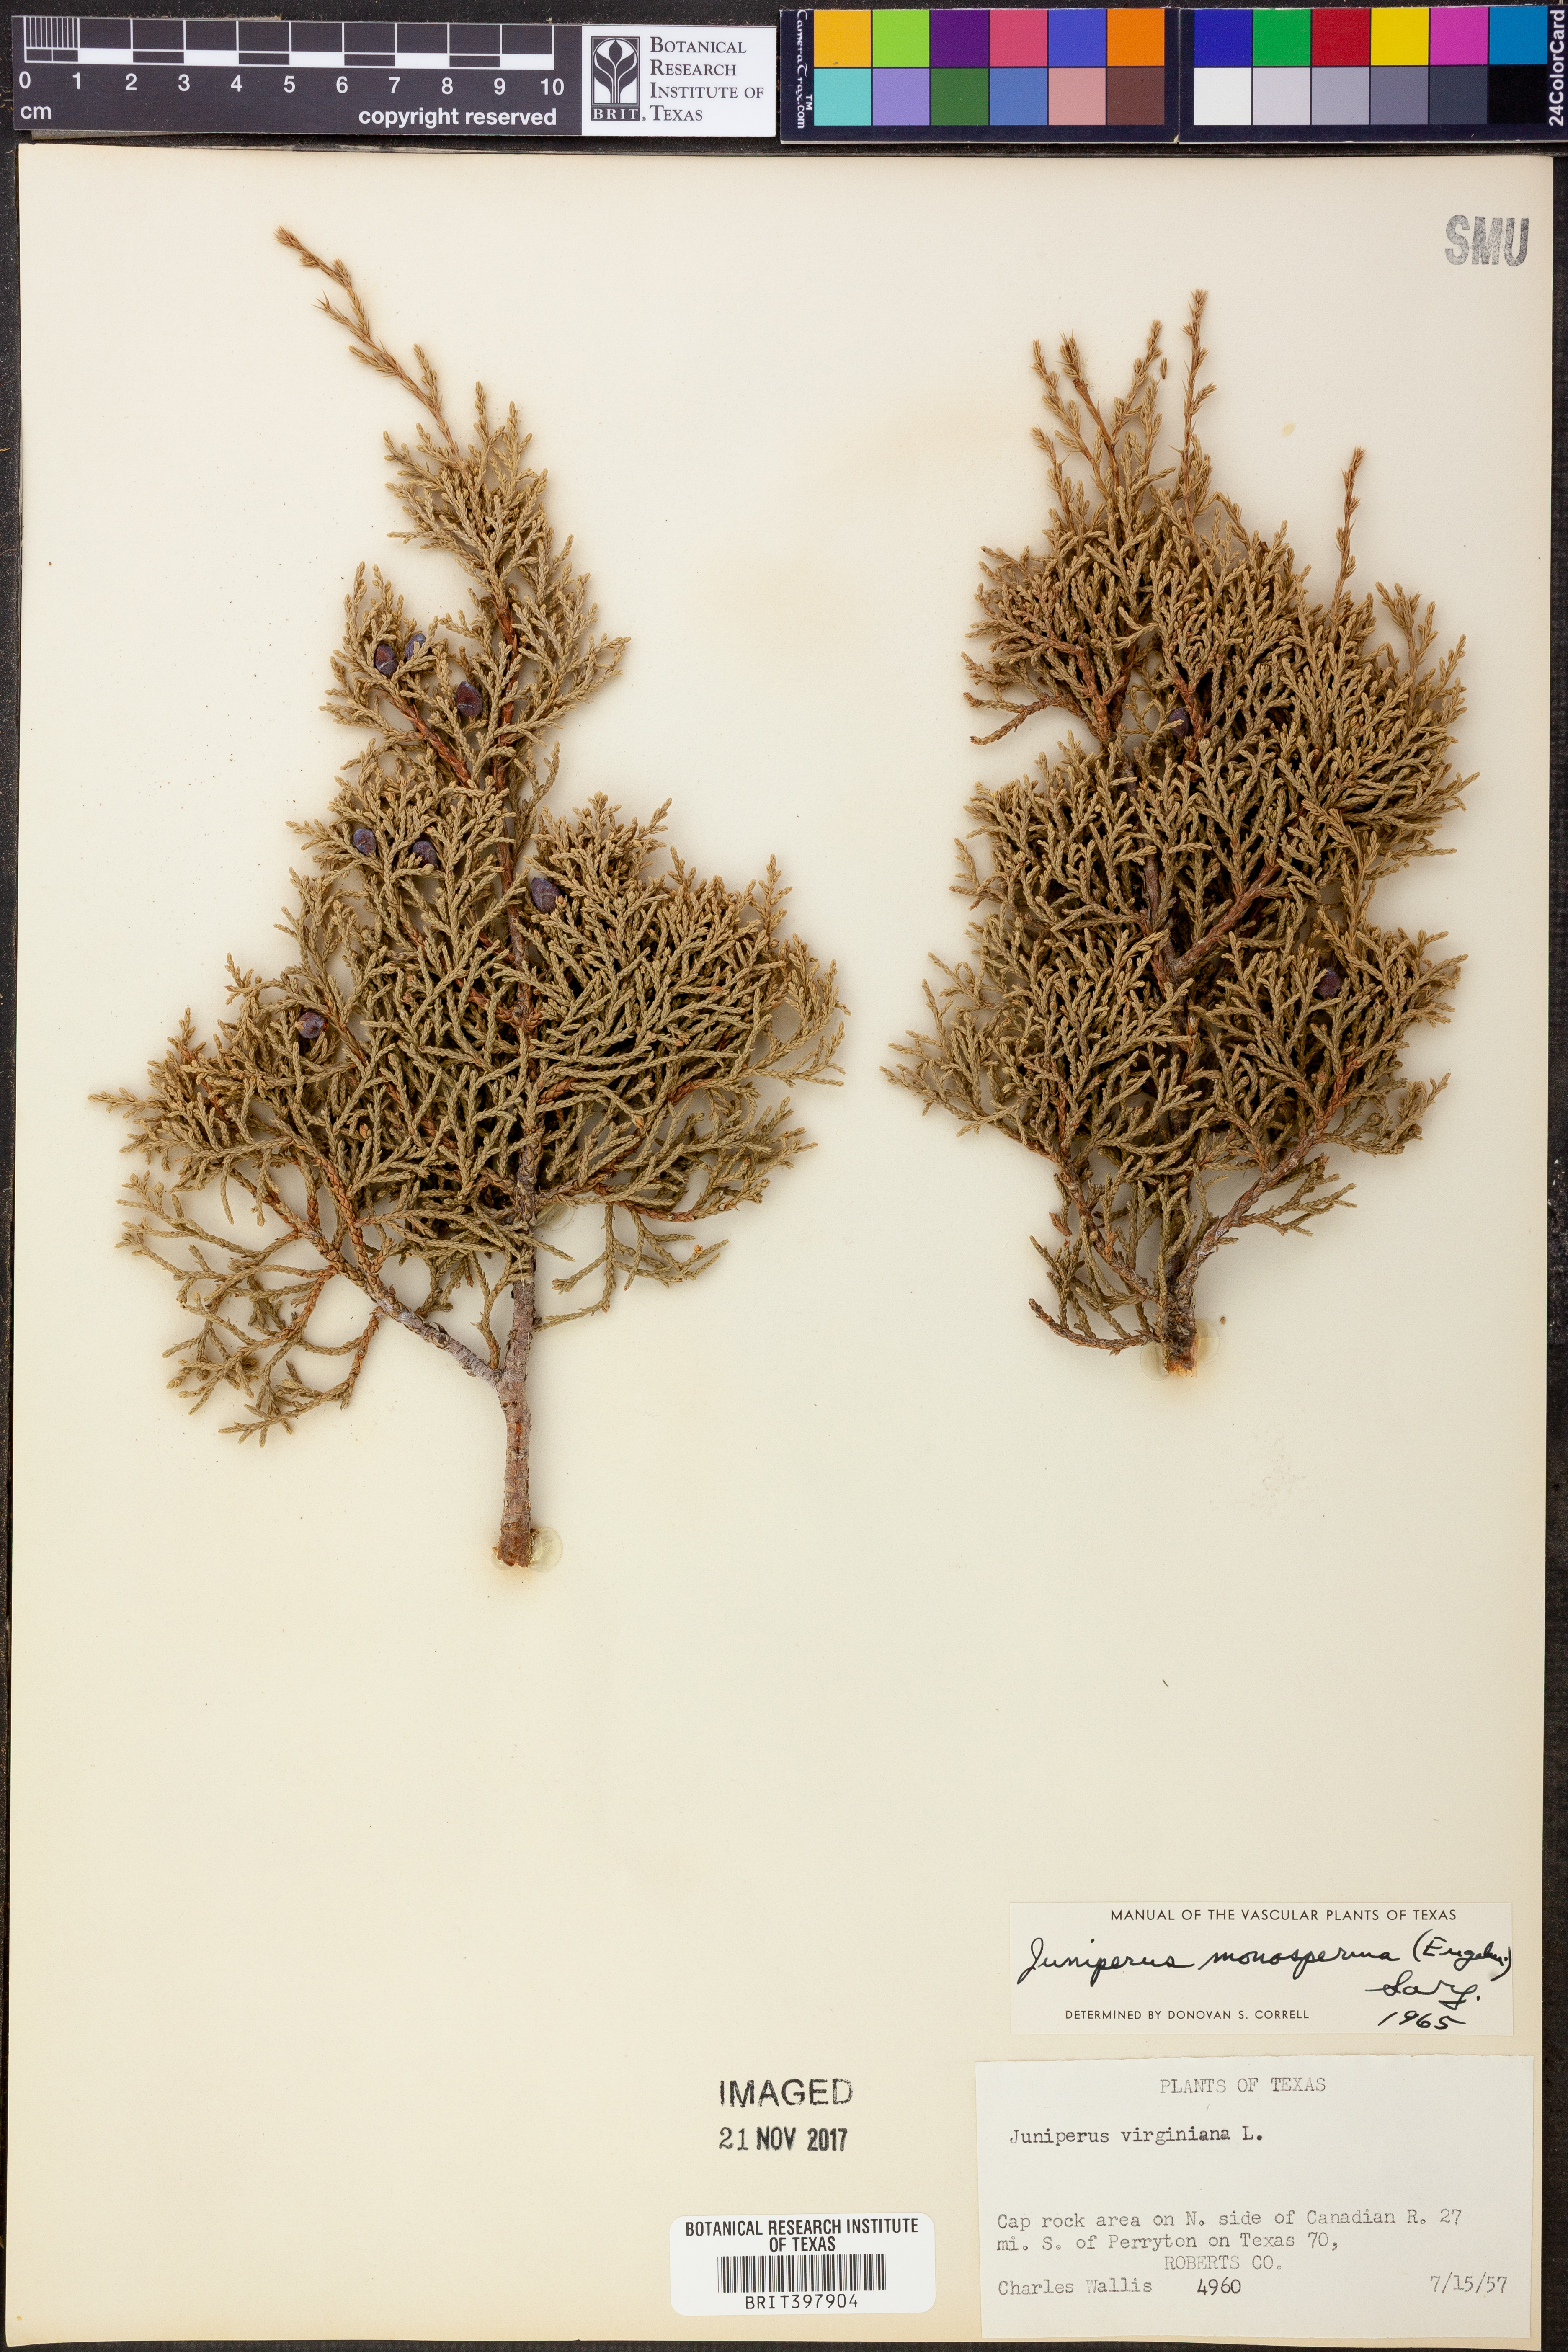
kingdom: Plantae
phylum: Tracheophyta
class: Pinopsida
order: Pinales
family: Cupressaceae
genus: Juniperus
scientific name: Juniperus monosperma
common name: One-seed juniper
